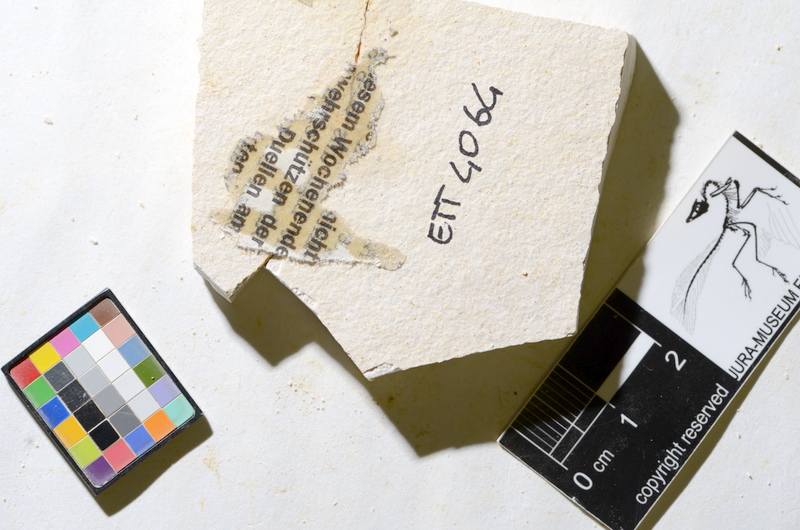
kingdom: Animalia
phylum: Chordata
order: Salmoniformes
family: Orthogonikleithridae
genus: Orthogonikleithrus
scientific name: Orthogonikleithrus hoelli
